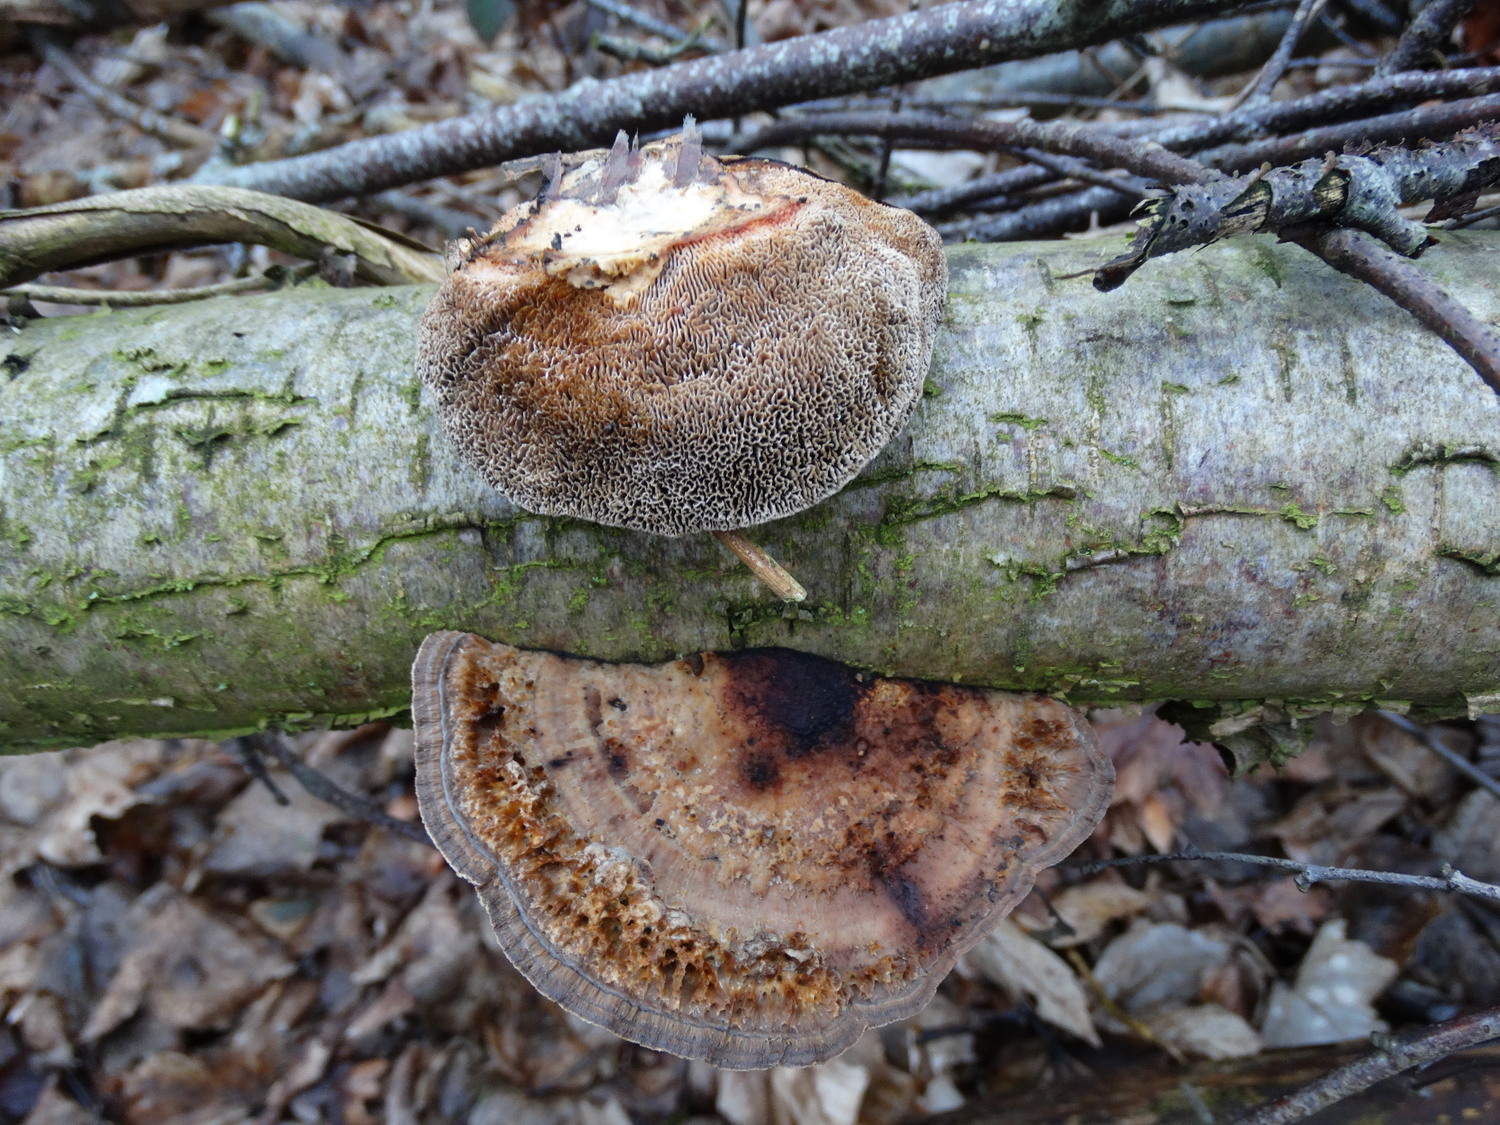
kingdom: Fungi
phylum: Basidiomycota
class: Agaricomycetes
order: Polyporales
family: Polyporaceae
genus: Daedaleopsis
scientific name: Daedaleopsis confragosa
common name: rødmende læderporesvamp
